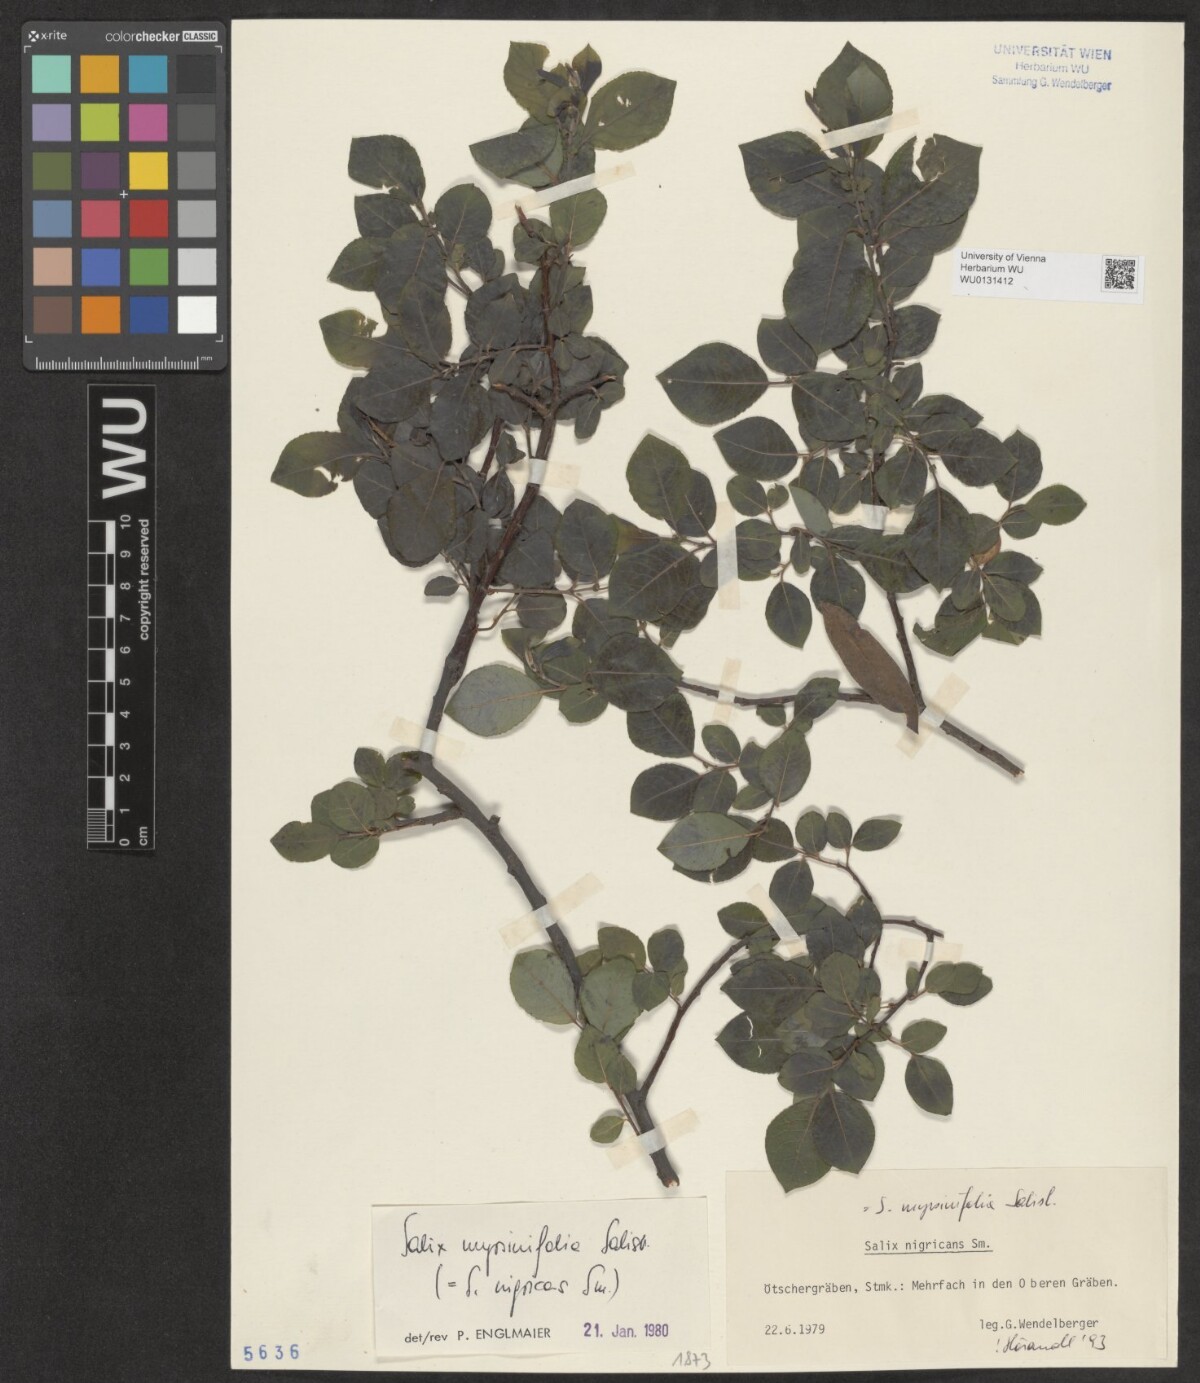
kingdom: Plantae
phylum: Tracheophyta
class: Magnoliopsida
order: Malpighiales
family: Salicaceae
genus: Salix
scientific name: Salix myrsinifolia
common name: Dark-leaved willow
